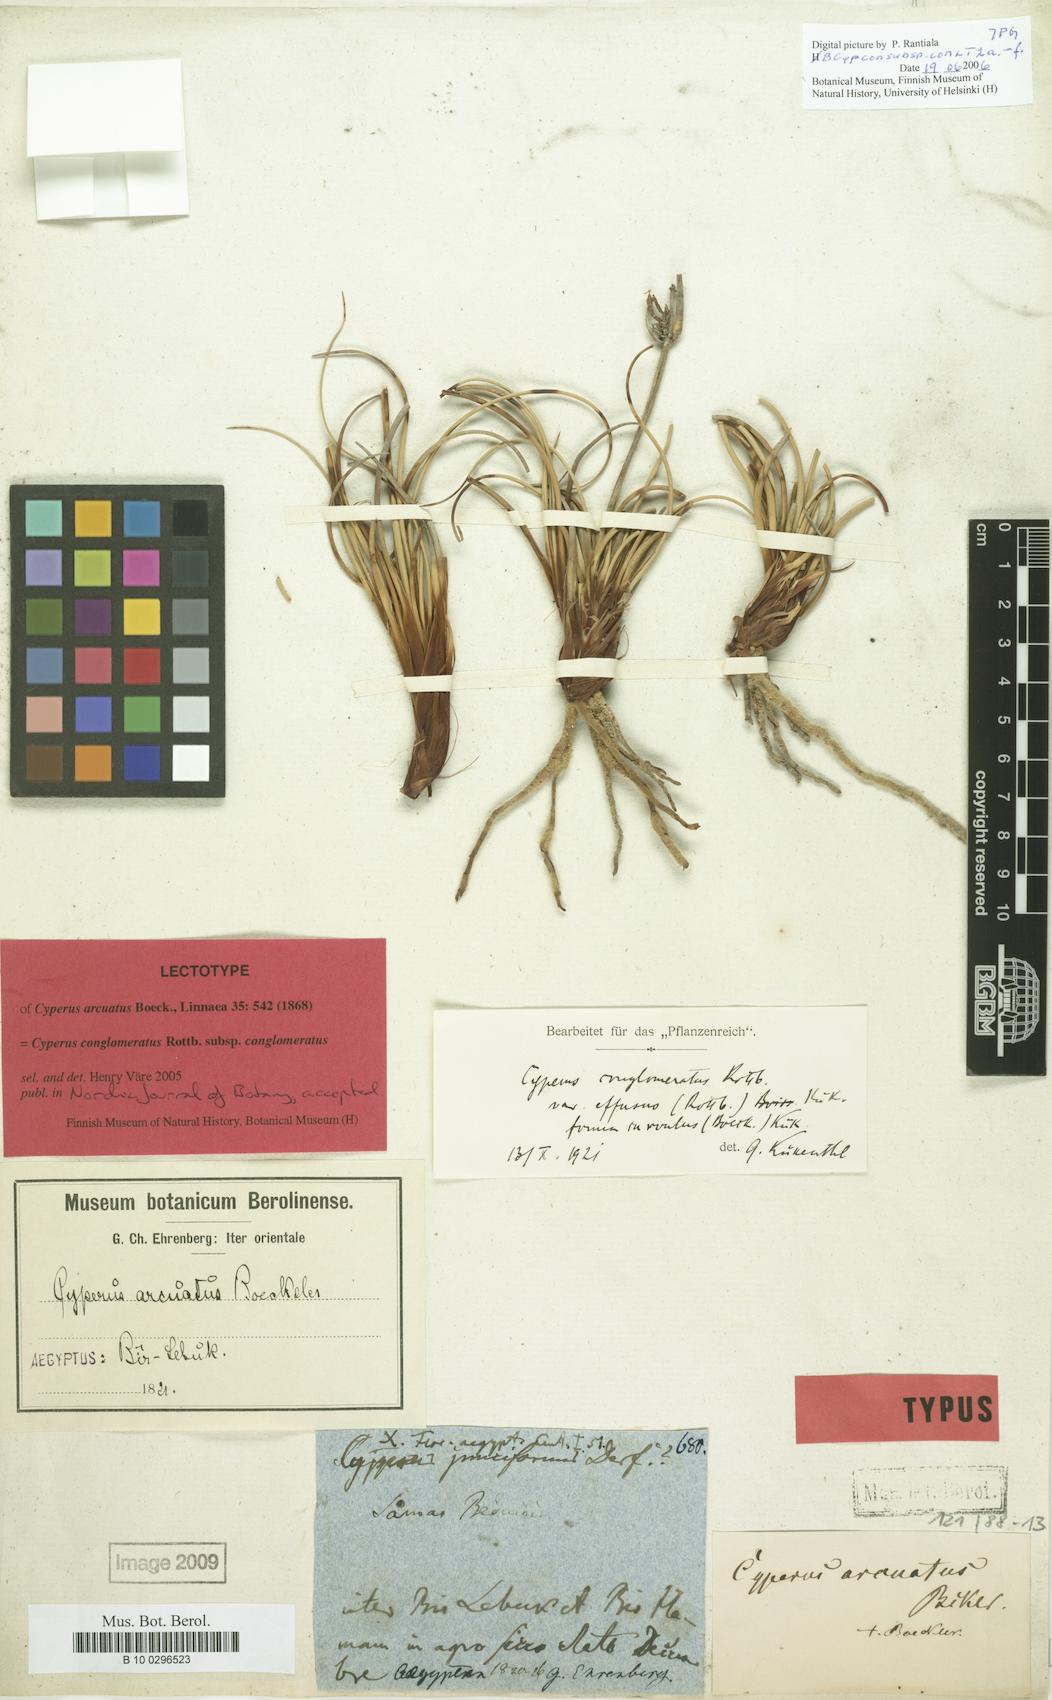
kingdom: Plantae
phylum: Tracheophyta
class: Liliopsida
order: Poales
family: Cyperaceae
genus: Cyperus
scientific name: Cyperus conglomeratus
